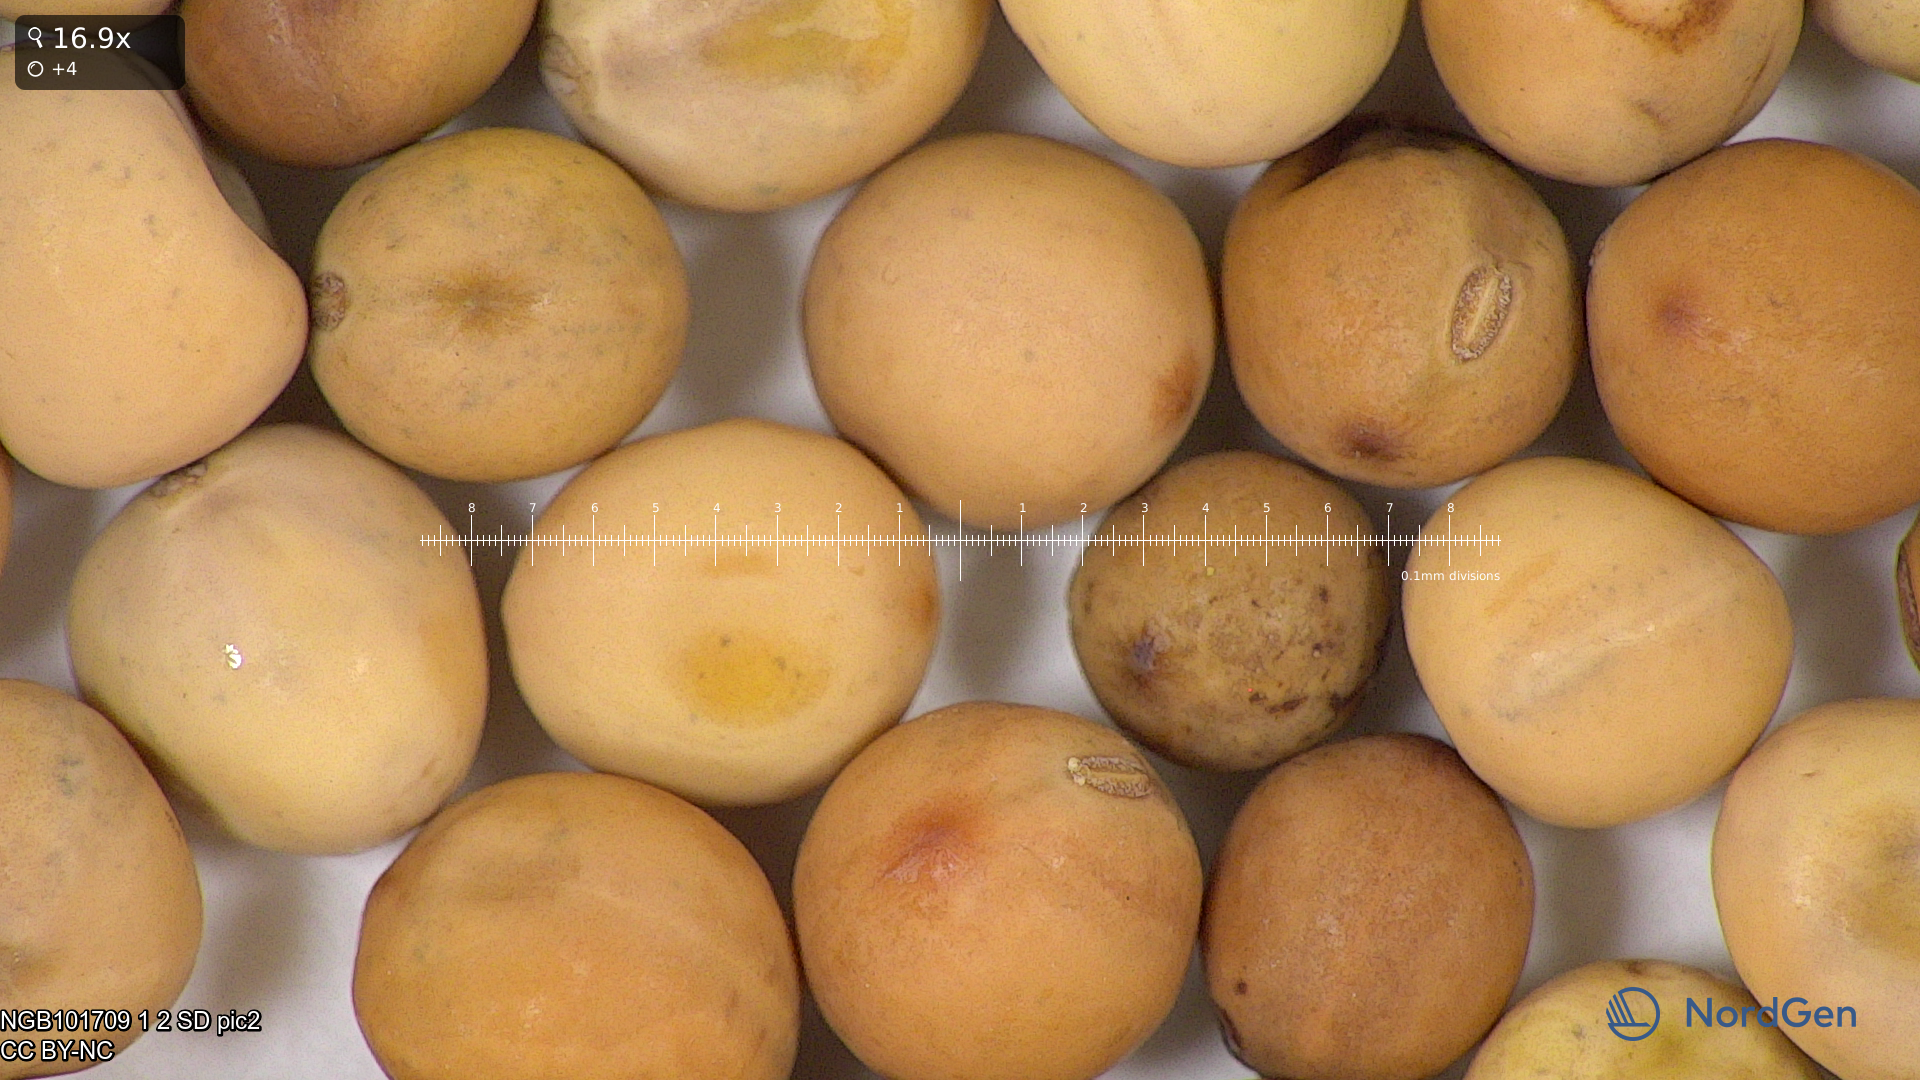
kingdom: Plantae
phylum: Tracheophyta
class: Magnoliopsida
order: Fabales
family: Fabaceae
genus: Lathyrus
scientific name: Lathyrus oleraceus
